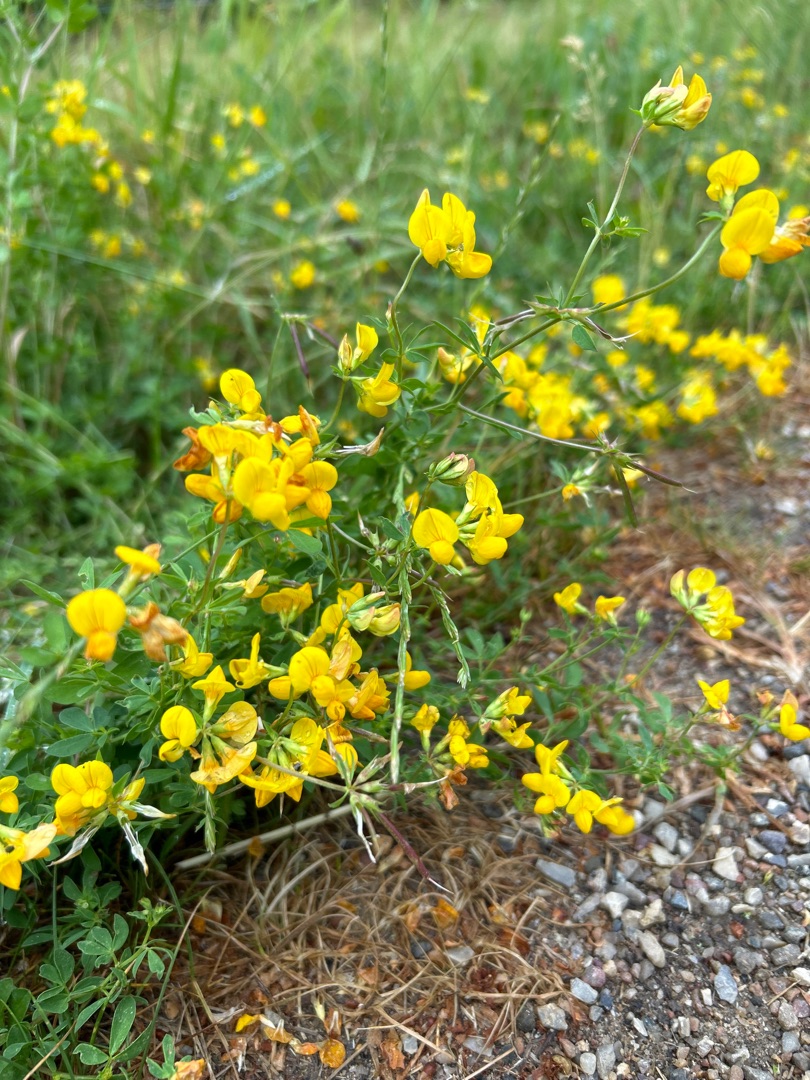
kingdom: Plantae
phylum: Tracheophyta
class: Magnoliopsida
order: Fabales
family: Fabaceae
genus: Lotus
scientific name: Lotus corniculatus
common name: Almindelig kællingetand
